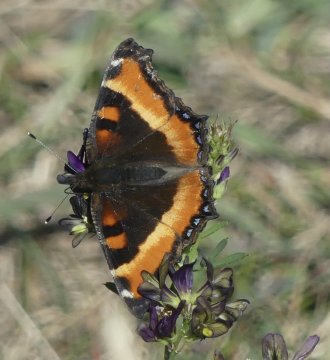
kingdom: Animalia
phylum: Arthropoda
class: Insecta
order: Lepidoptera
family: Nymphalidae
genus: Aglais
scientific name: Aglais milberti
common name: Milbert's Tortoiseshell
